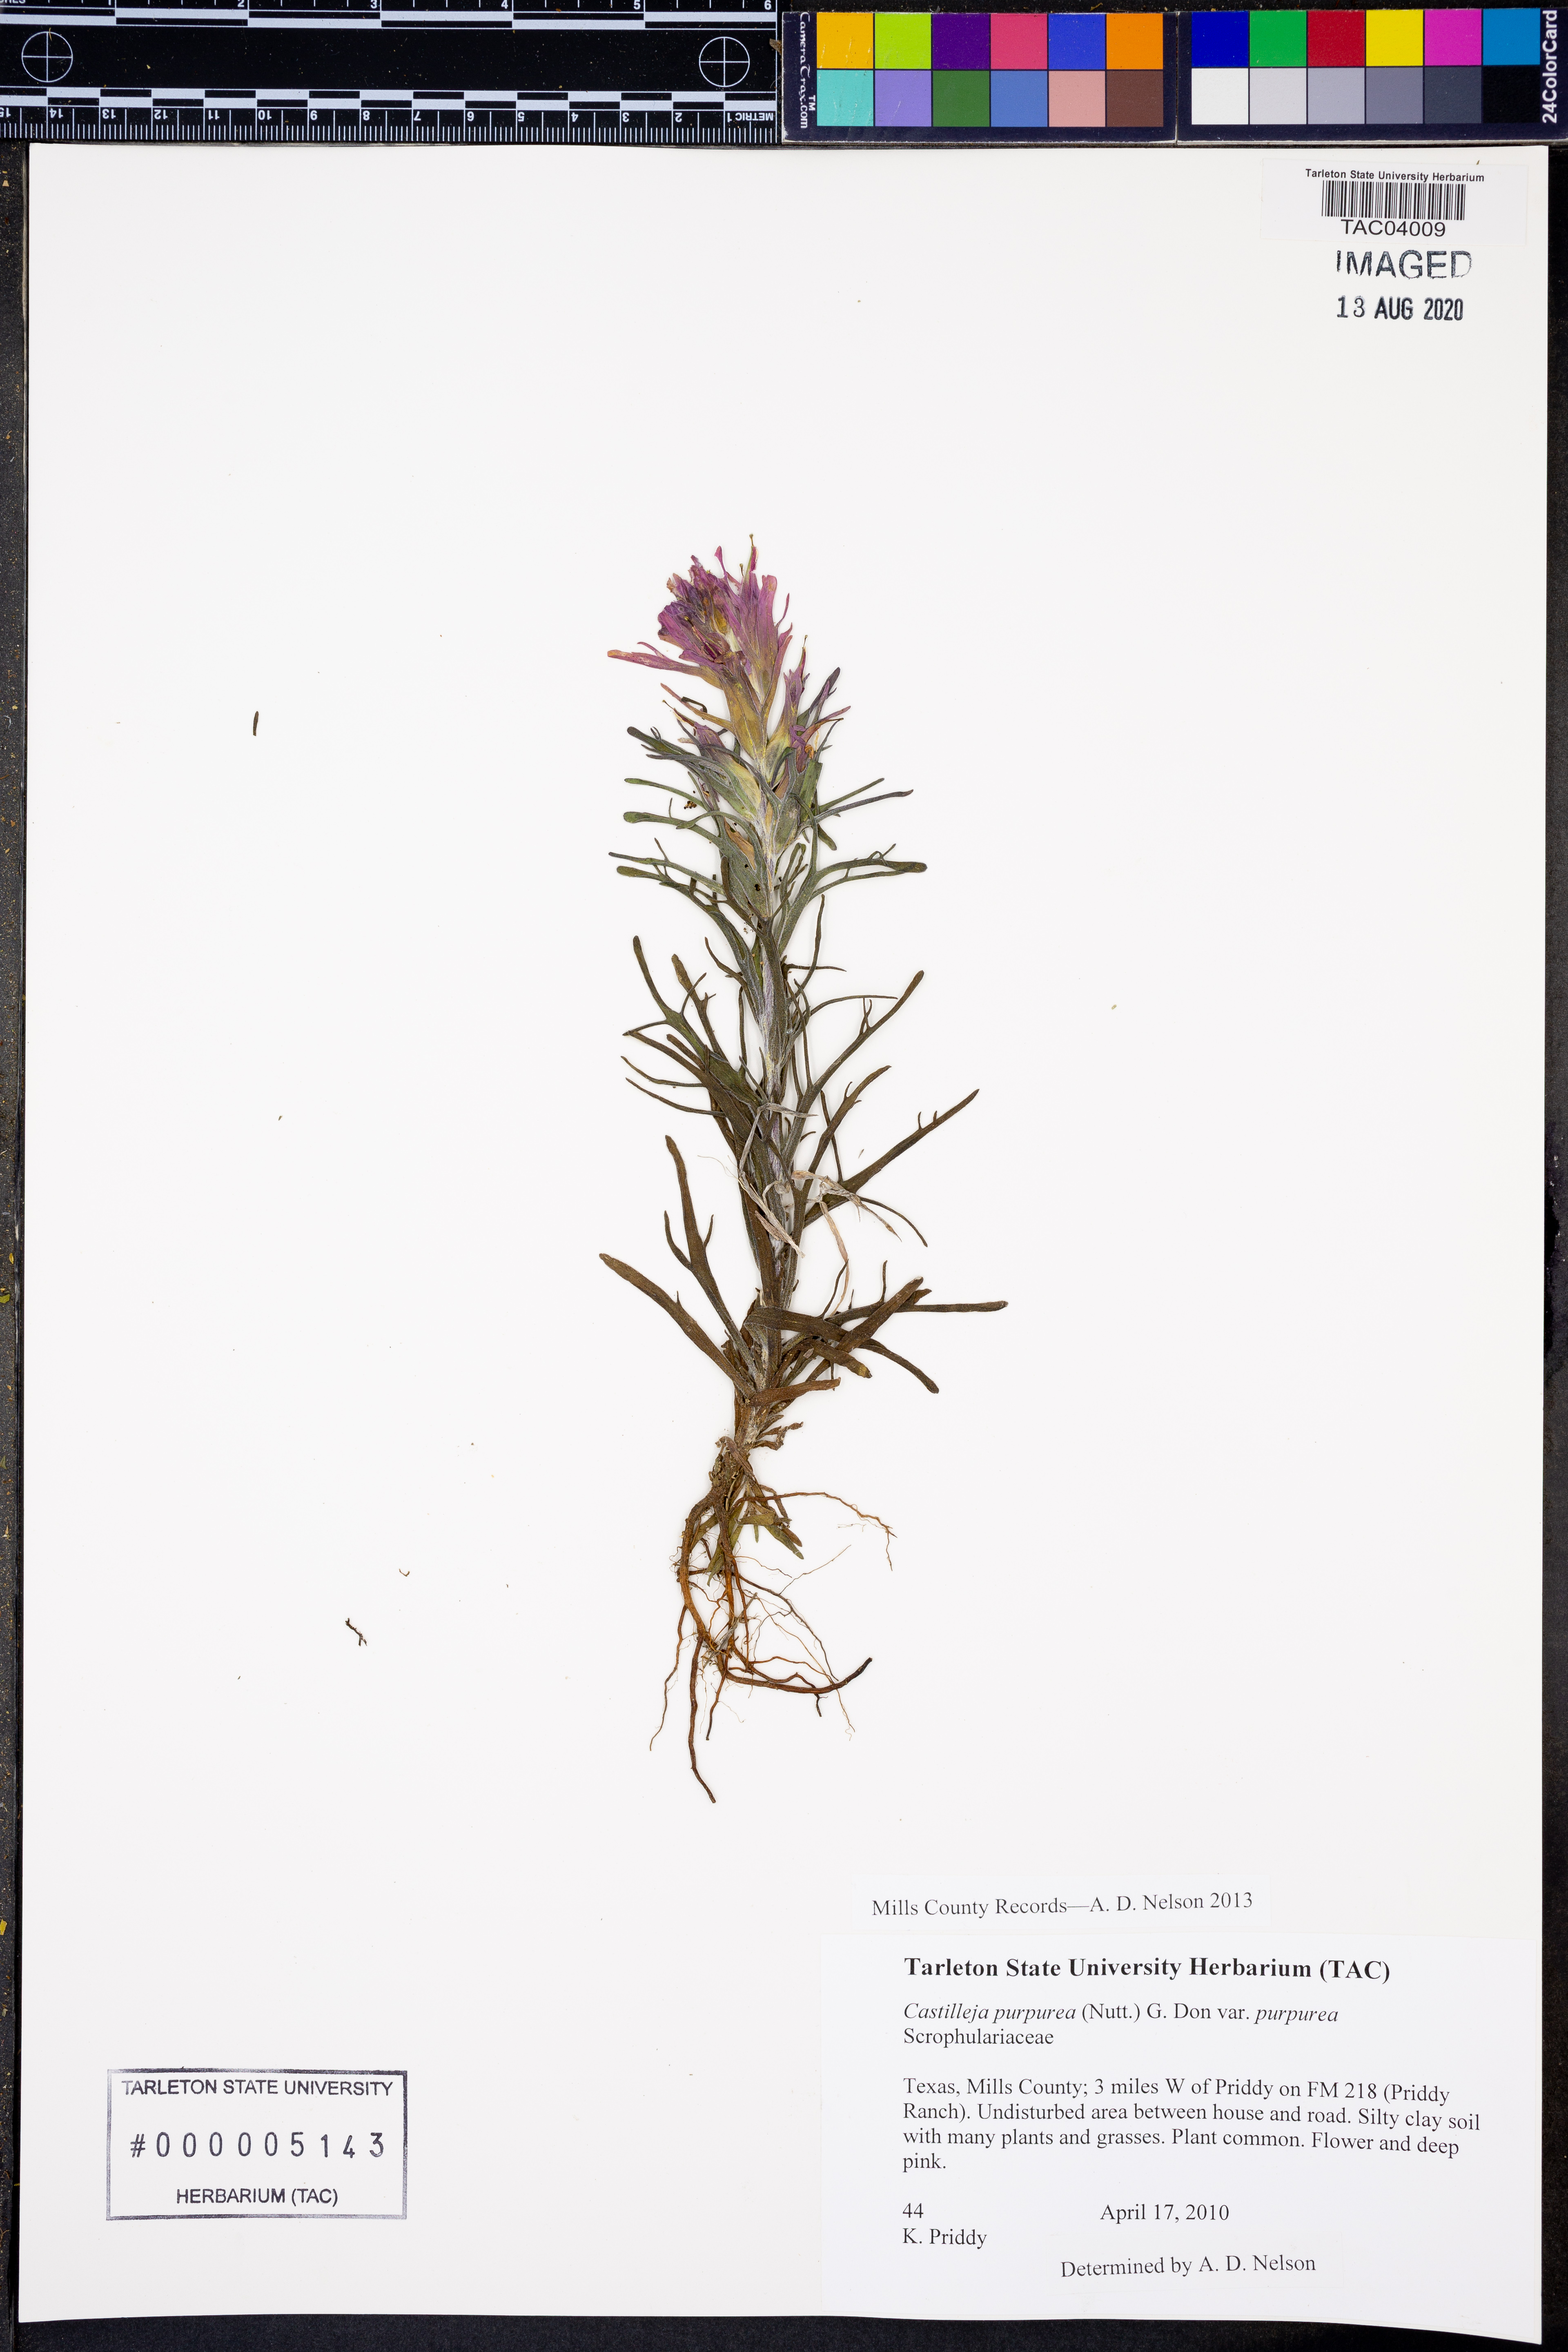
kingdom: Plantae
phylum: Tracheophyta
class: Magnoliopsida
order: Lamiales
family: Orobanchaceae
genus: Castilleja
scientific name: Castilleja purpurea
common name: Plains paintbrush
